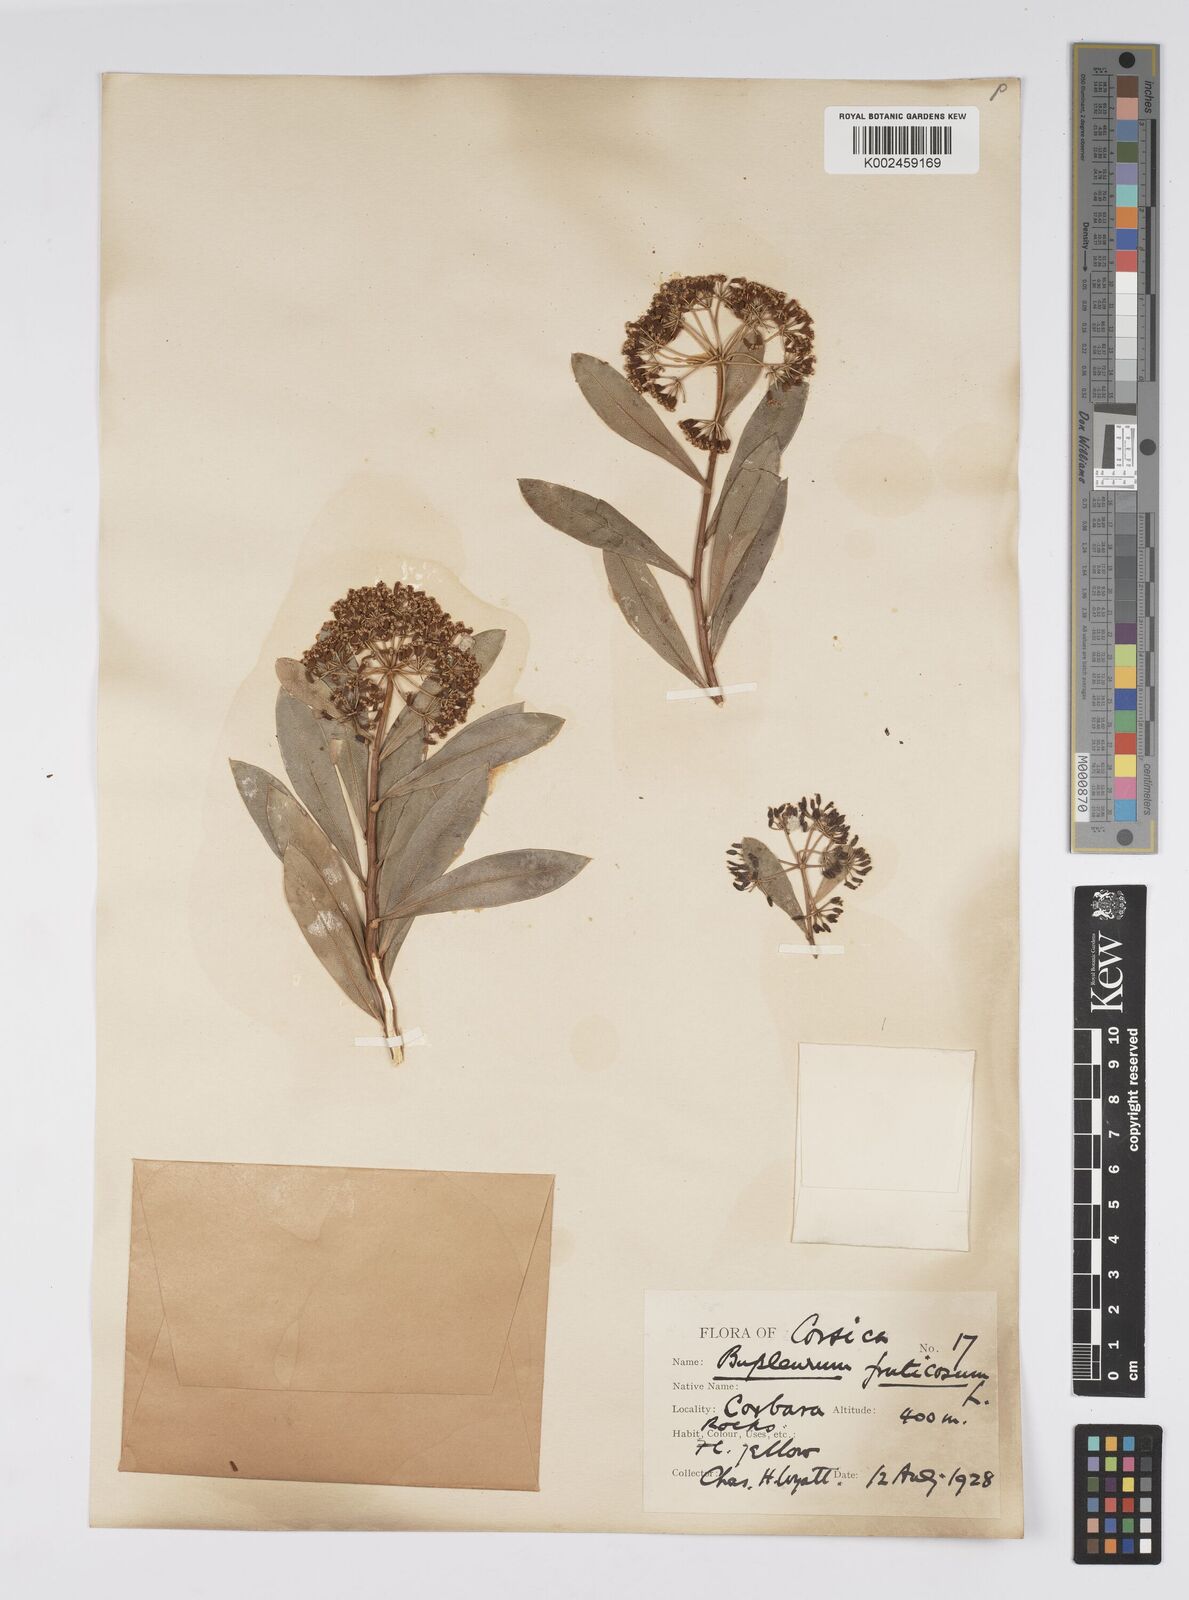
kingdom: Plantae
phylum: Tracheophyta
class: Magnoliopsida
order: Apiales
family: Apiaceae
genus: Bupleurum
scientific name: Bupleurum fruticosum
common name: Shrubby hare's-ear
